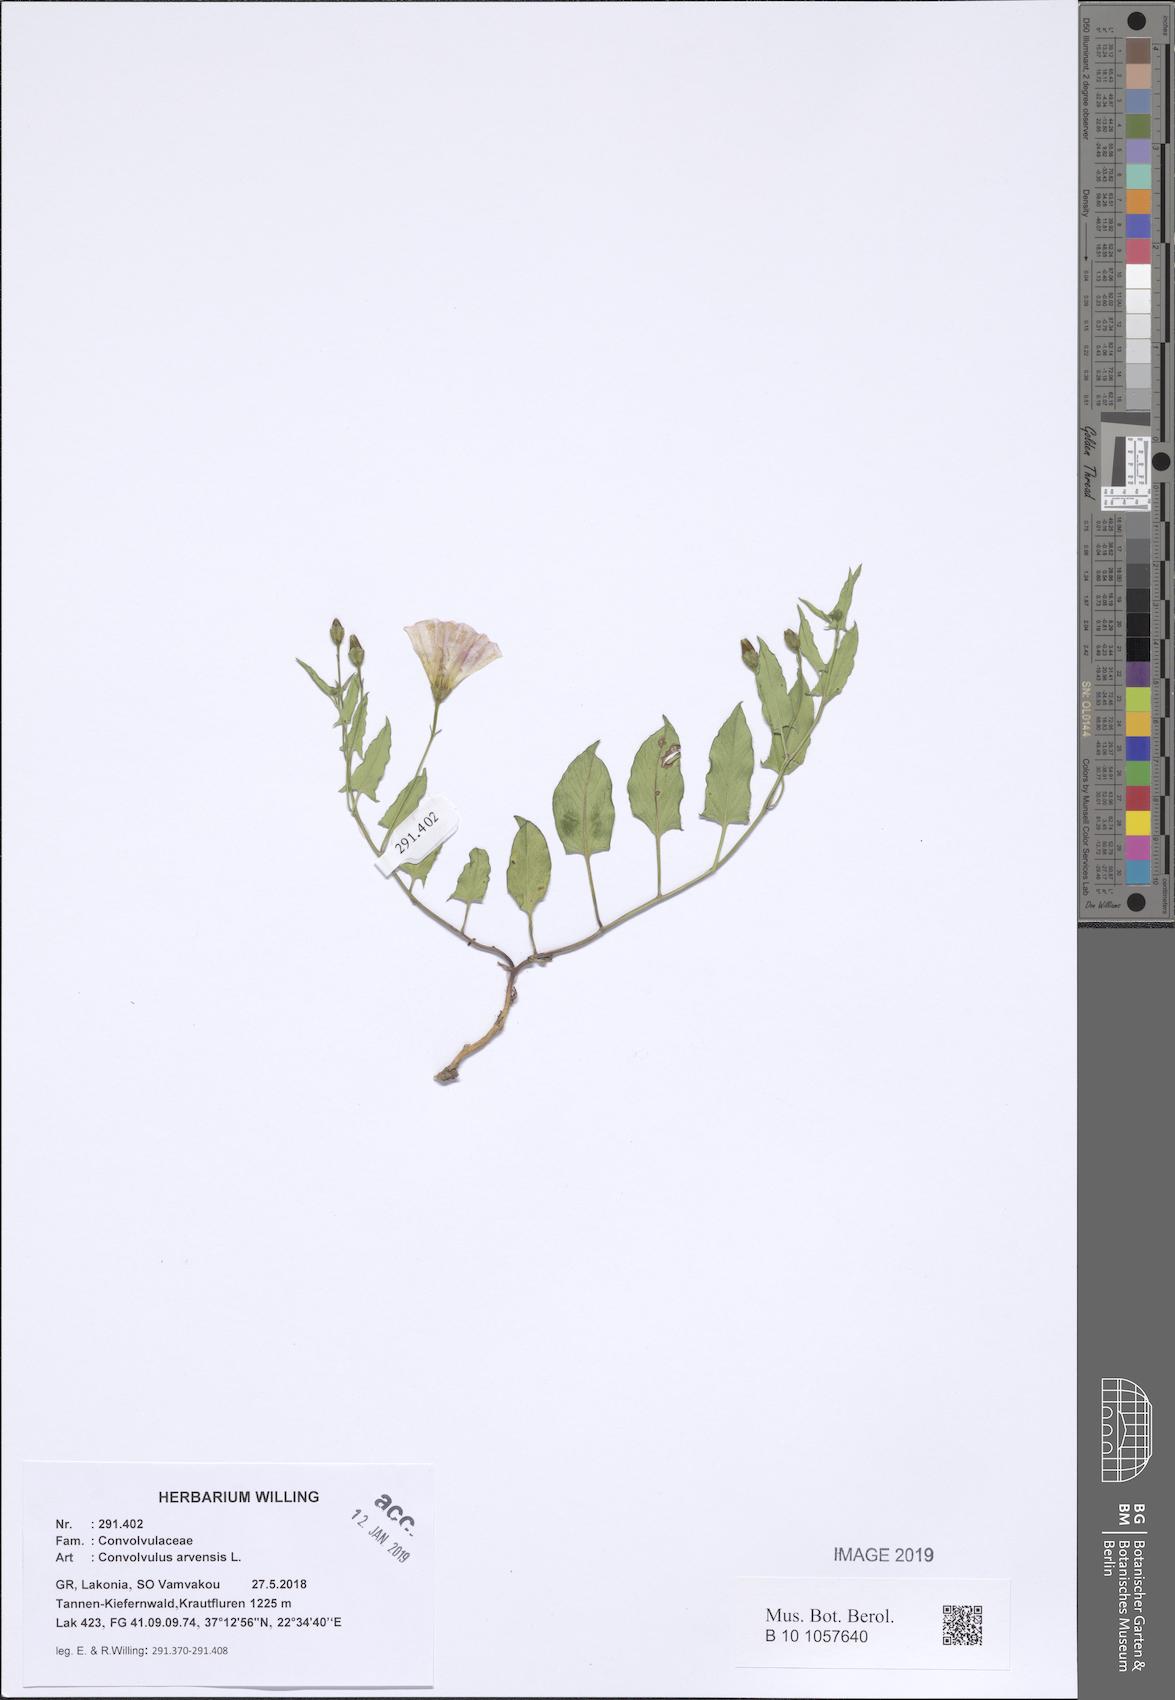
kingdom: Plantae
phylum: Tracheophyta
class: Magnoliopsida
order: Solanales
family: Convolvulaceae
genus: Convolvulus
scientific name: Convolvulus arvensis
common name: Field bindweed
